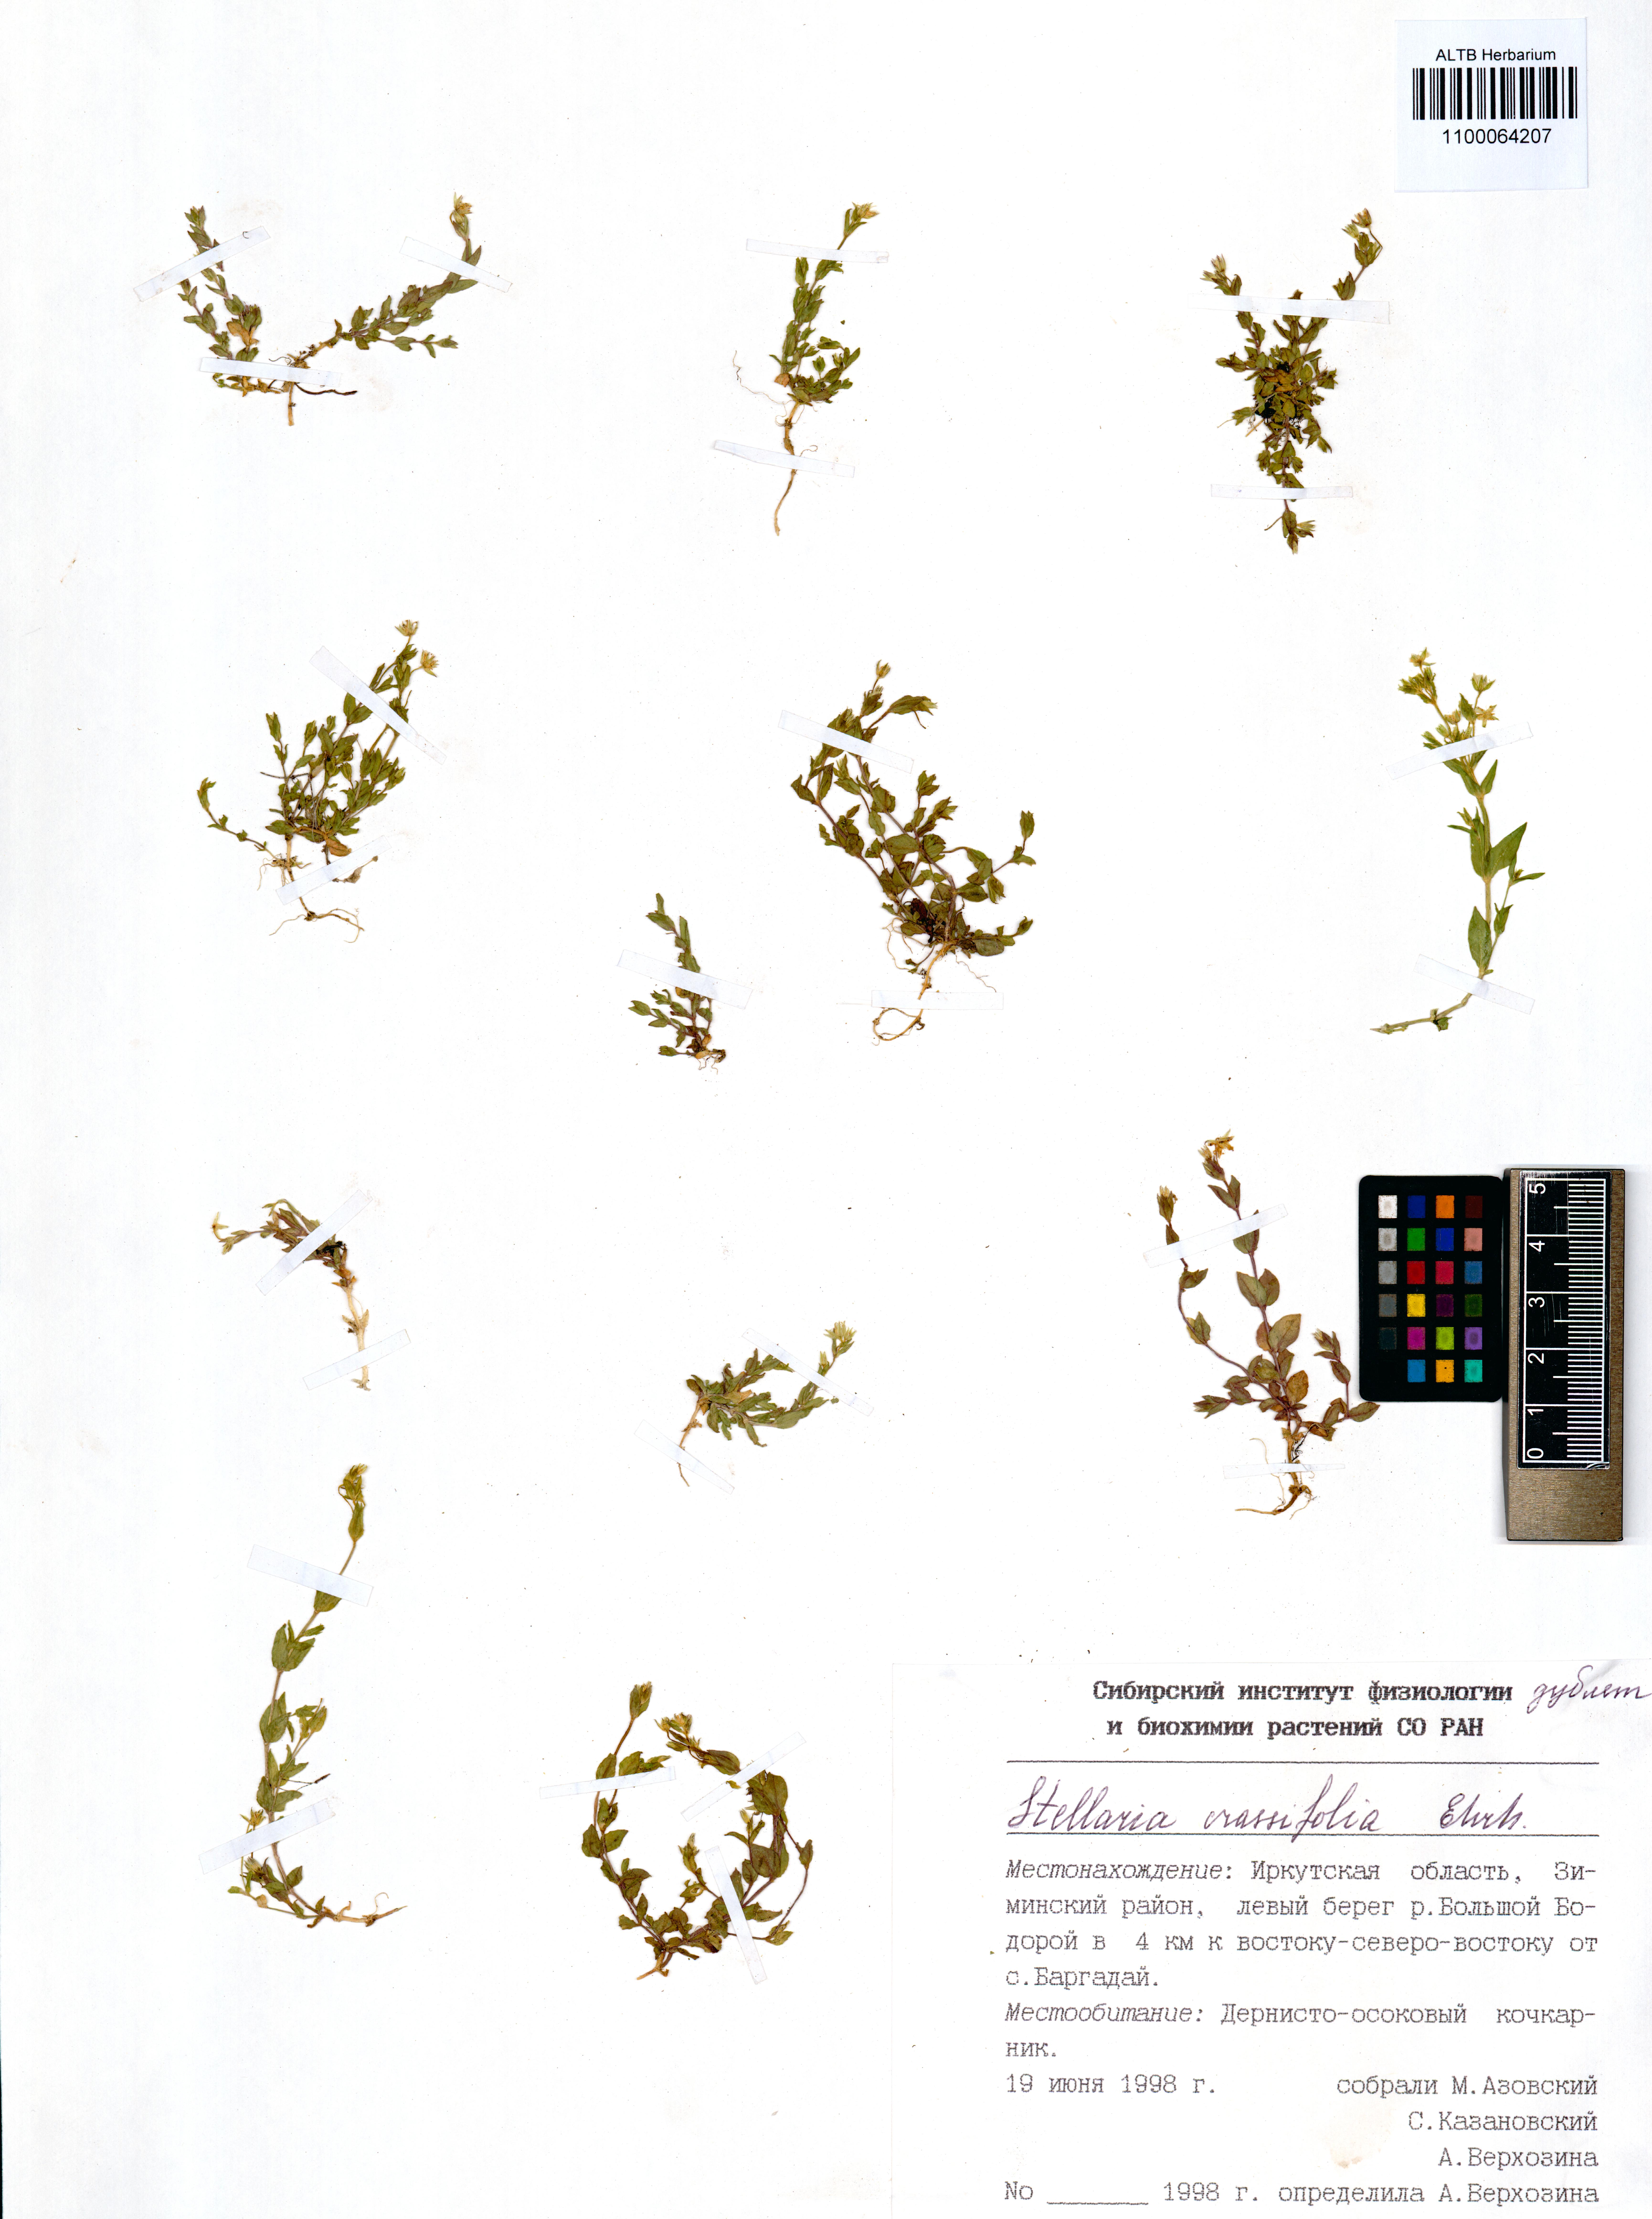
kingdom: Plantae
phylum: Tracheophyta
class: Magnoliopsida
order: Caryophyllales
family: Caryophyllaceae
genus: Stellaria
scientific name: Stellaria crassifolia
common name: Fleshy starwort
